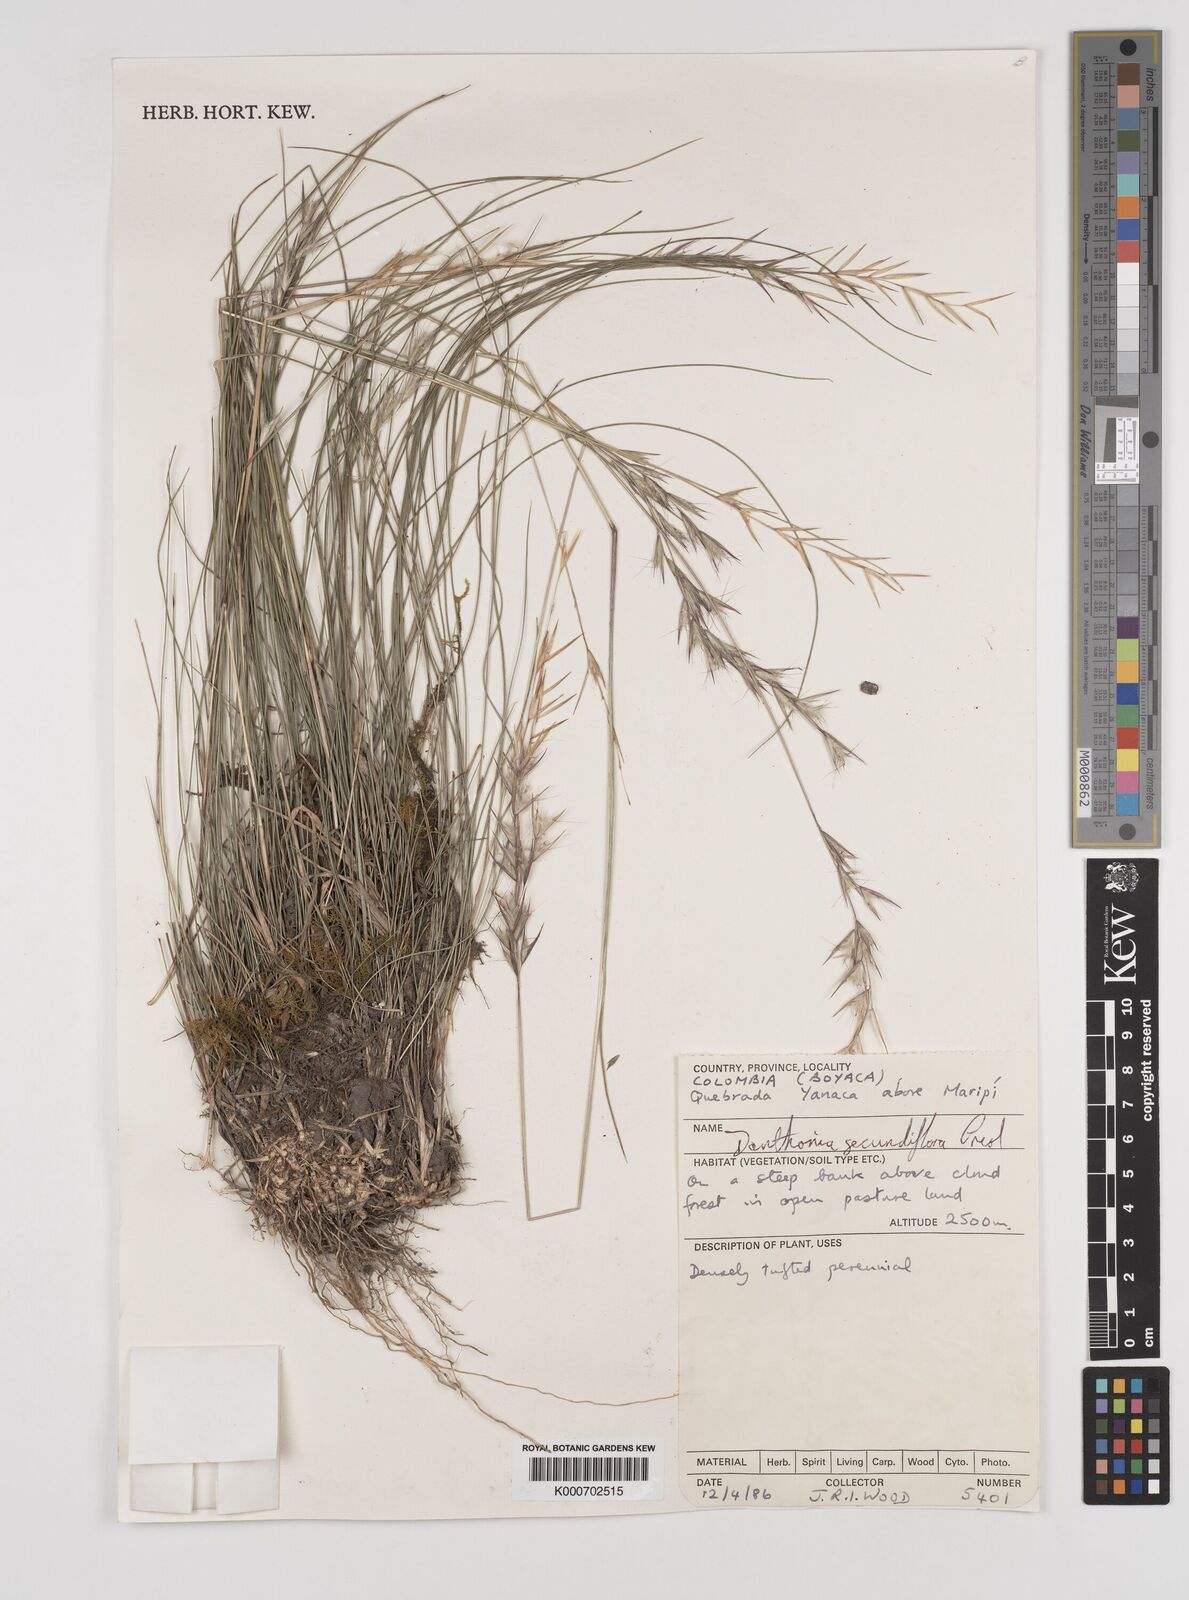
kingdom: Plantae
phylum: Tracheophyta
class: Liliopsida
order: Poales
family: Poaceae
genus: Danthonia
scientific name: Danthonia secundiflora
